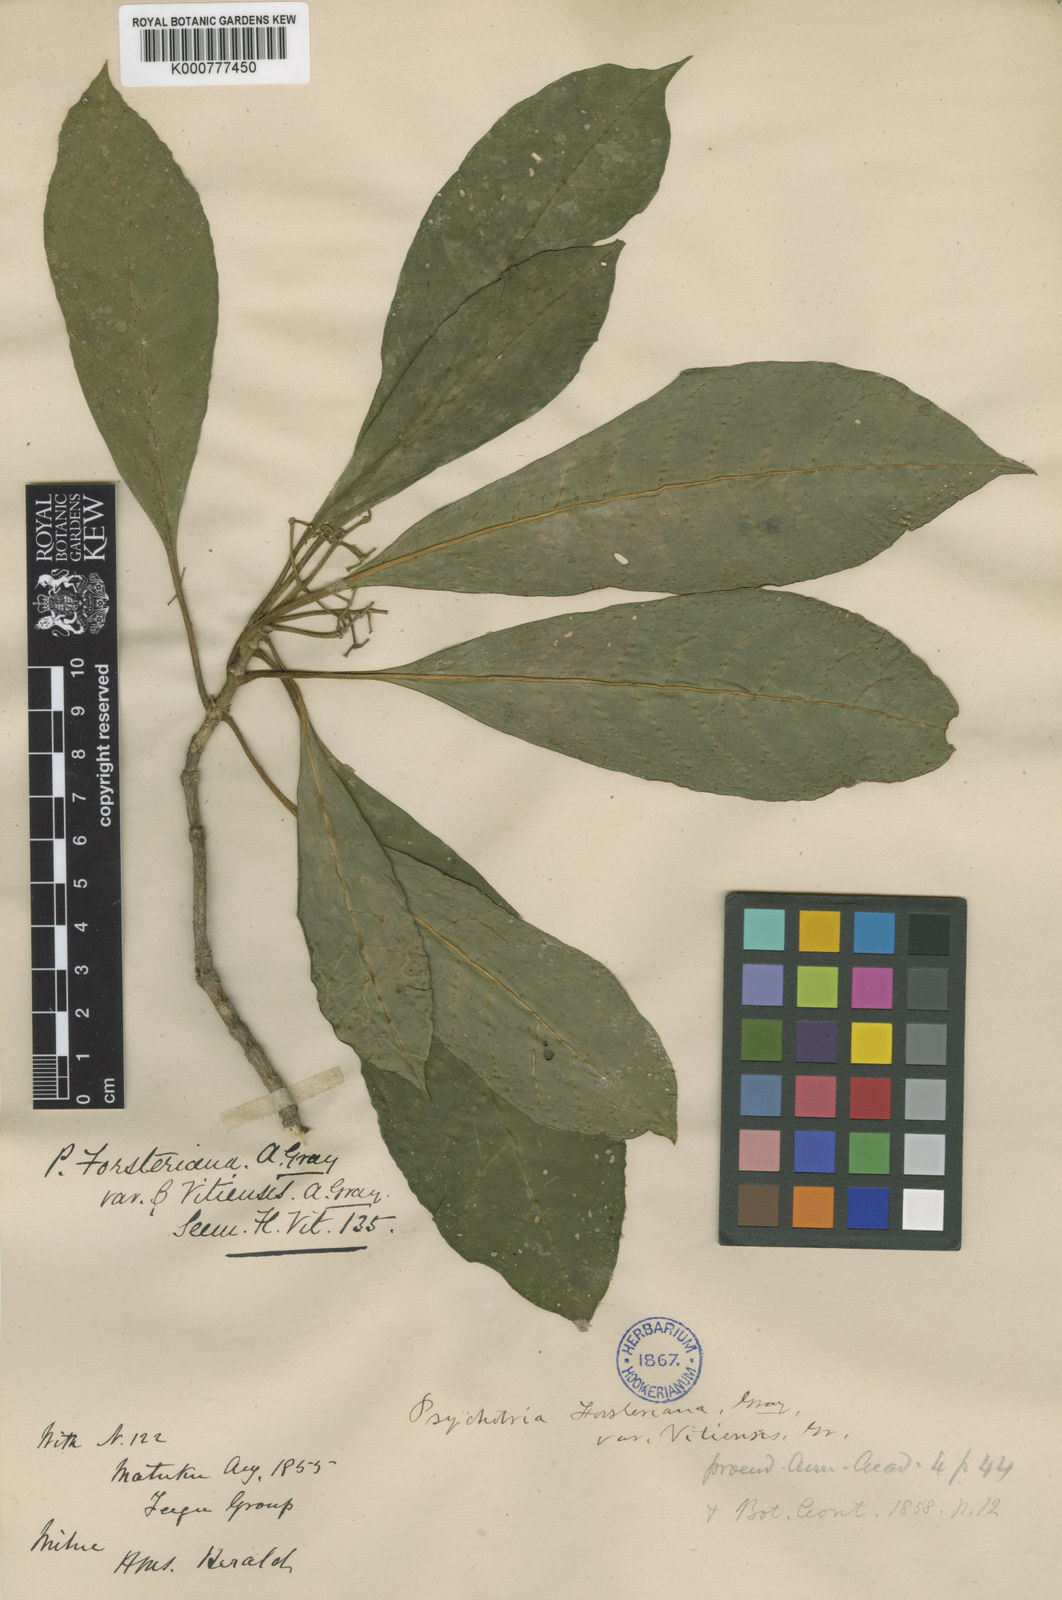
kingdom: Plantae
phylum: Tracheophyta
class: Magnoliopsida
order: Gentianales
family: Rubiaceae
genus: Eumachia
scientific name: Eumachia forsteriana
